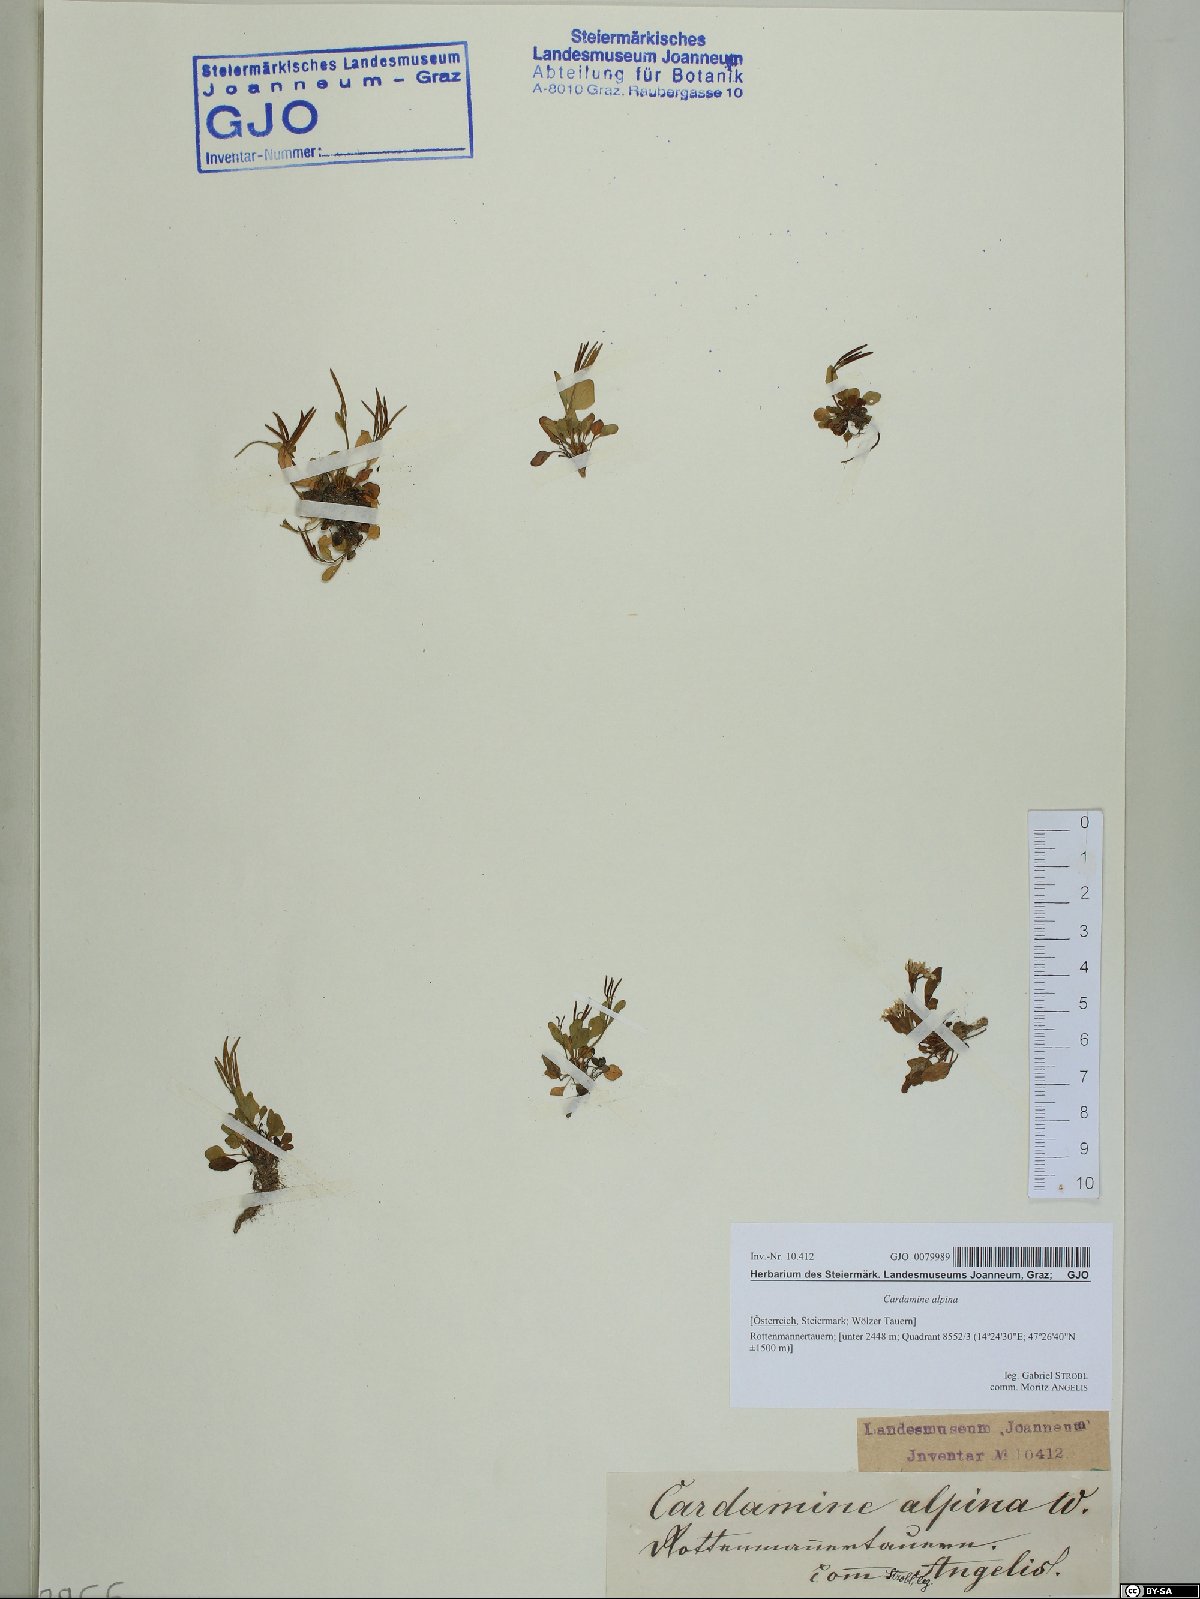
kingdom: Plantae
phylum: Tracheophyta
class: Magnoliopsida
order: Brassicales
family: Brassicaceae
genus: Cardamine
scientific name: Cardamine bellidifolia
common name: Alpine bittercress
